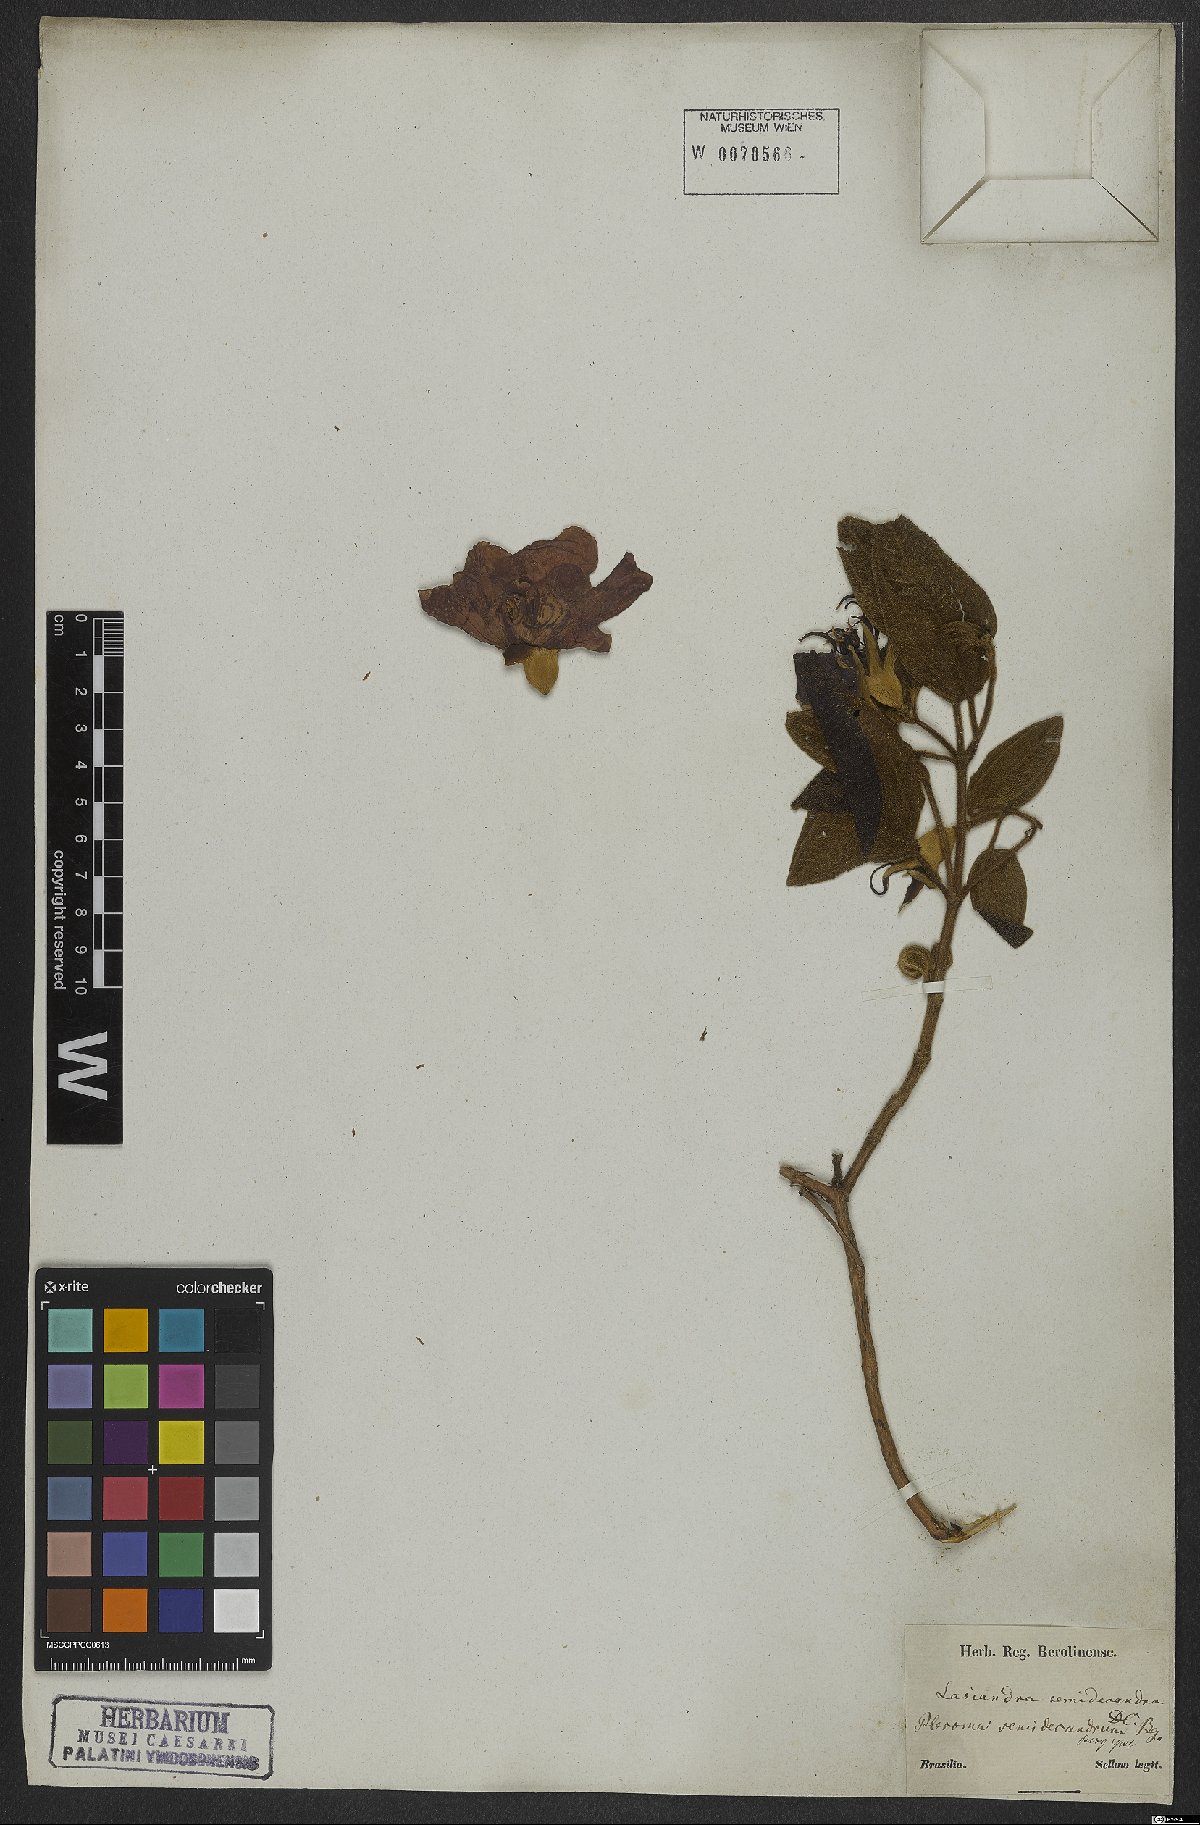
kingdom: Plantae
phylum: Tracheophyta
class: Magnoliopsida
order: Myrtales
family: Melastomataceae
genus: Pleroma
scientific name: Pleroma semidecandrum
